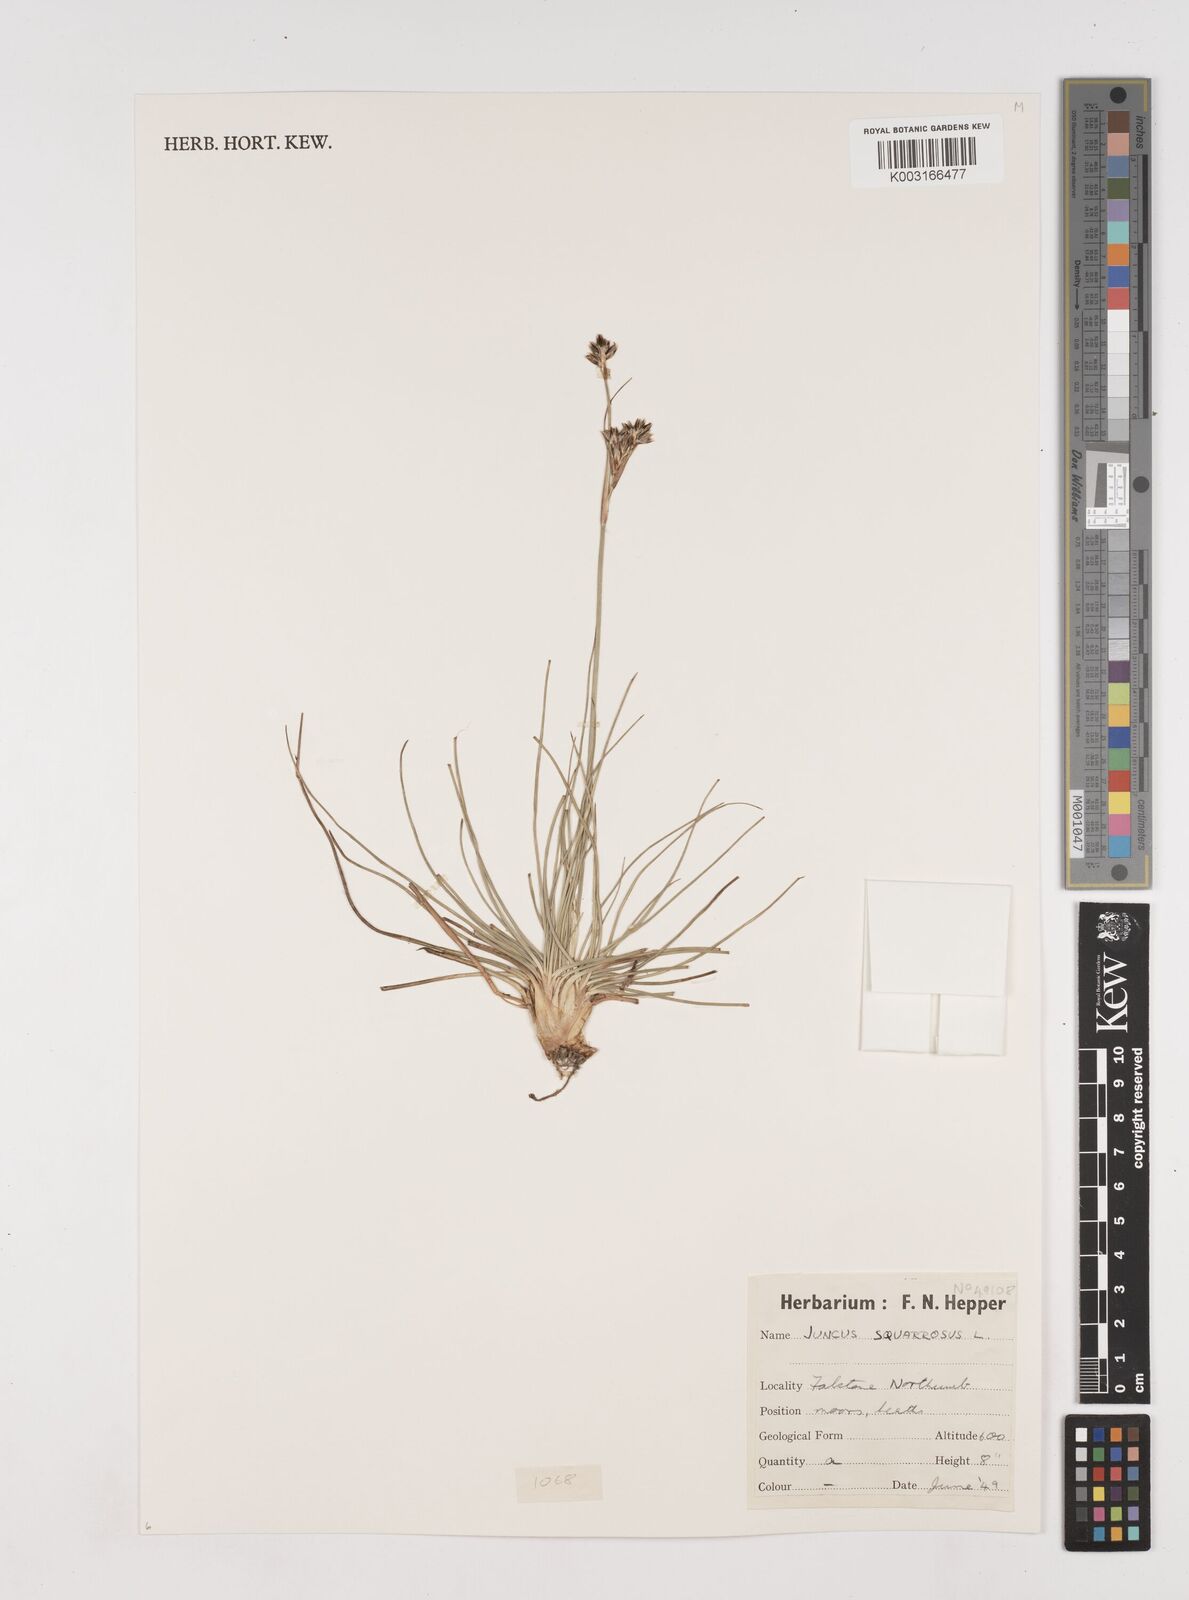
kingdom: Plantae
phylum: Tracheophyta
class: Liliopsida
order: Poales
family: Juncaceae
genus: Juncus
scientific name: Juncus squarrosus
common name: Heath rush
